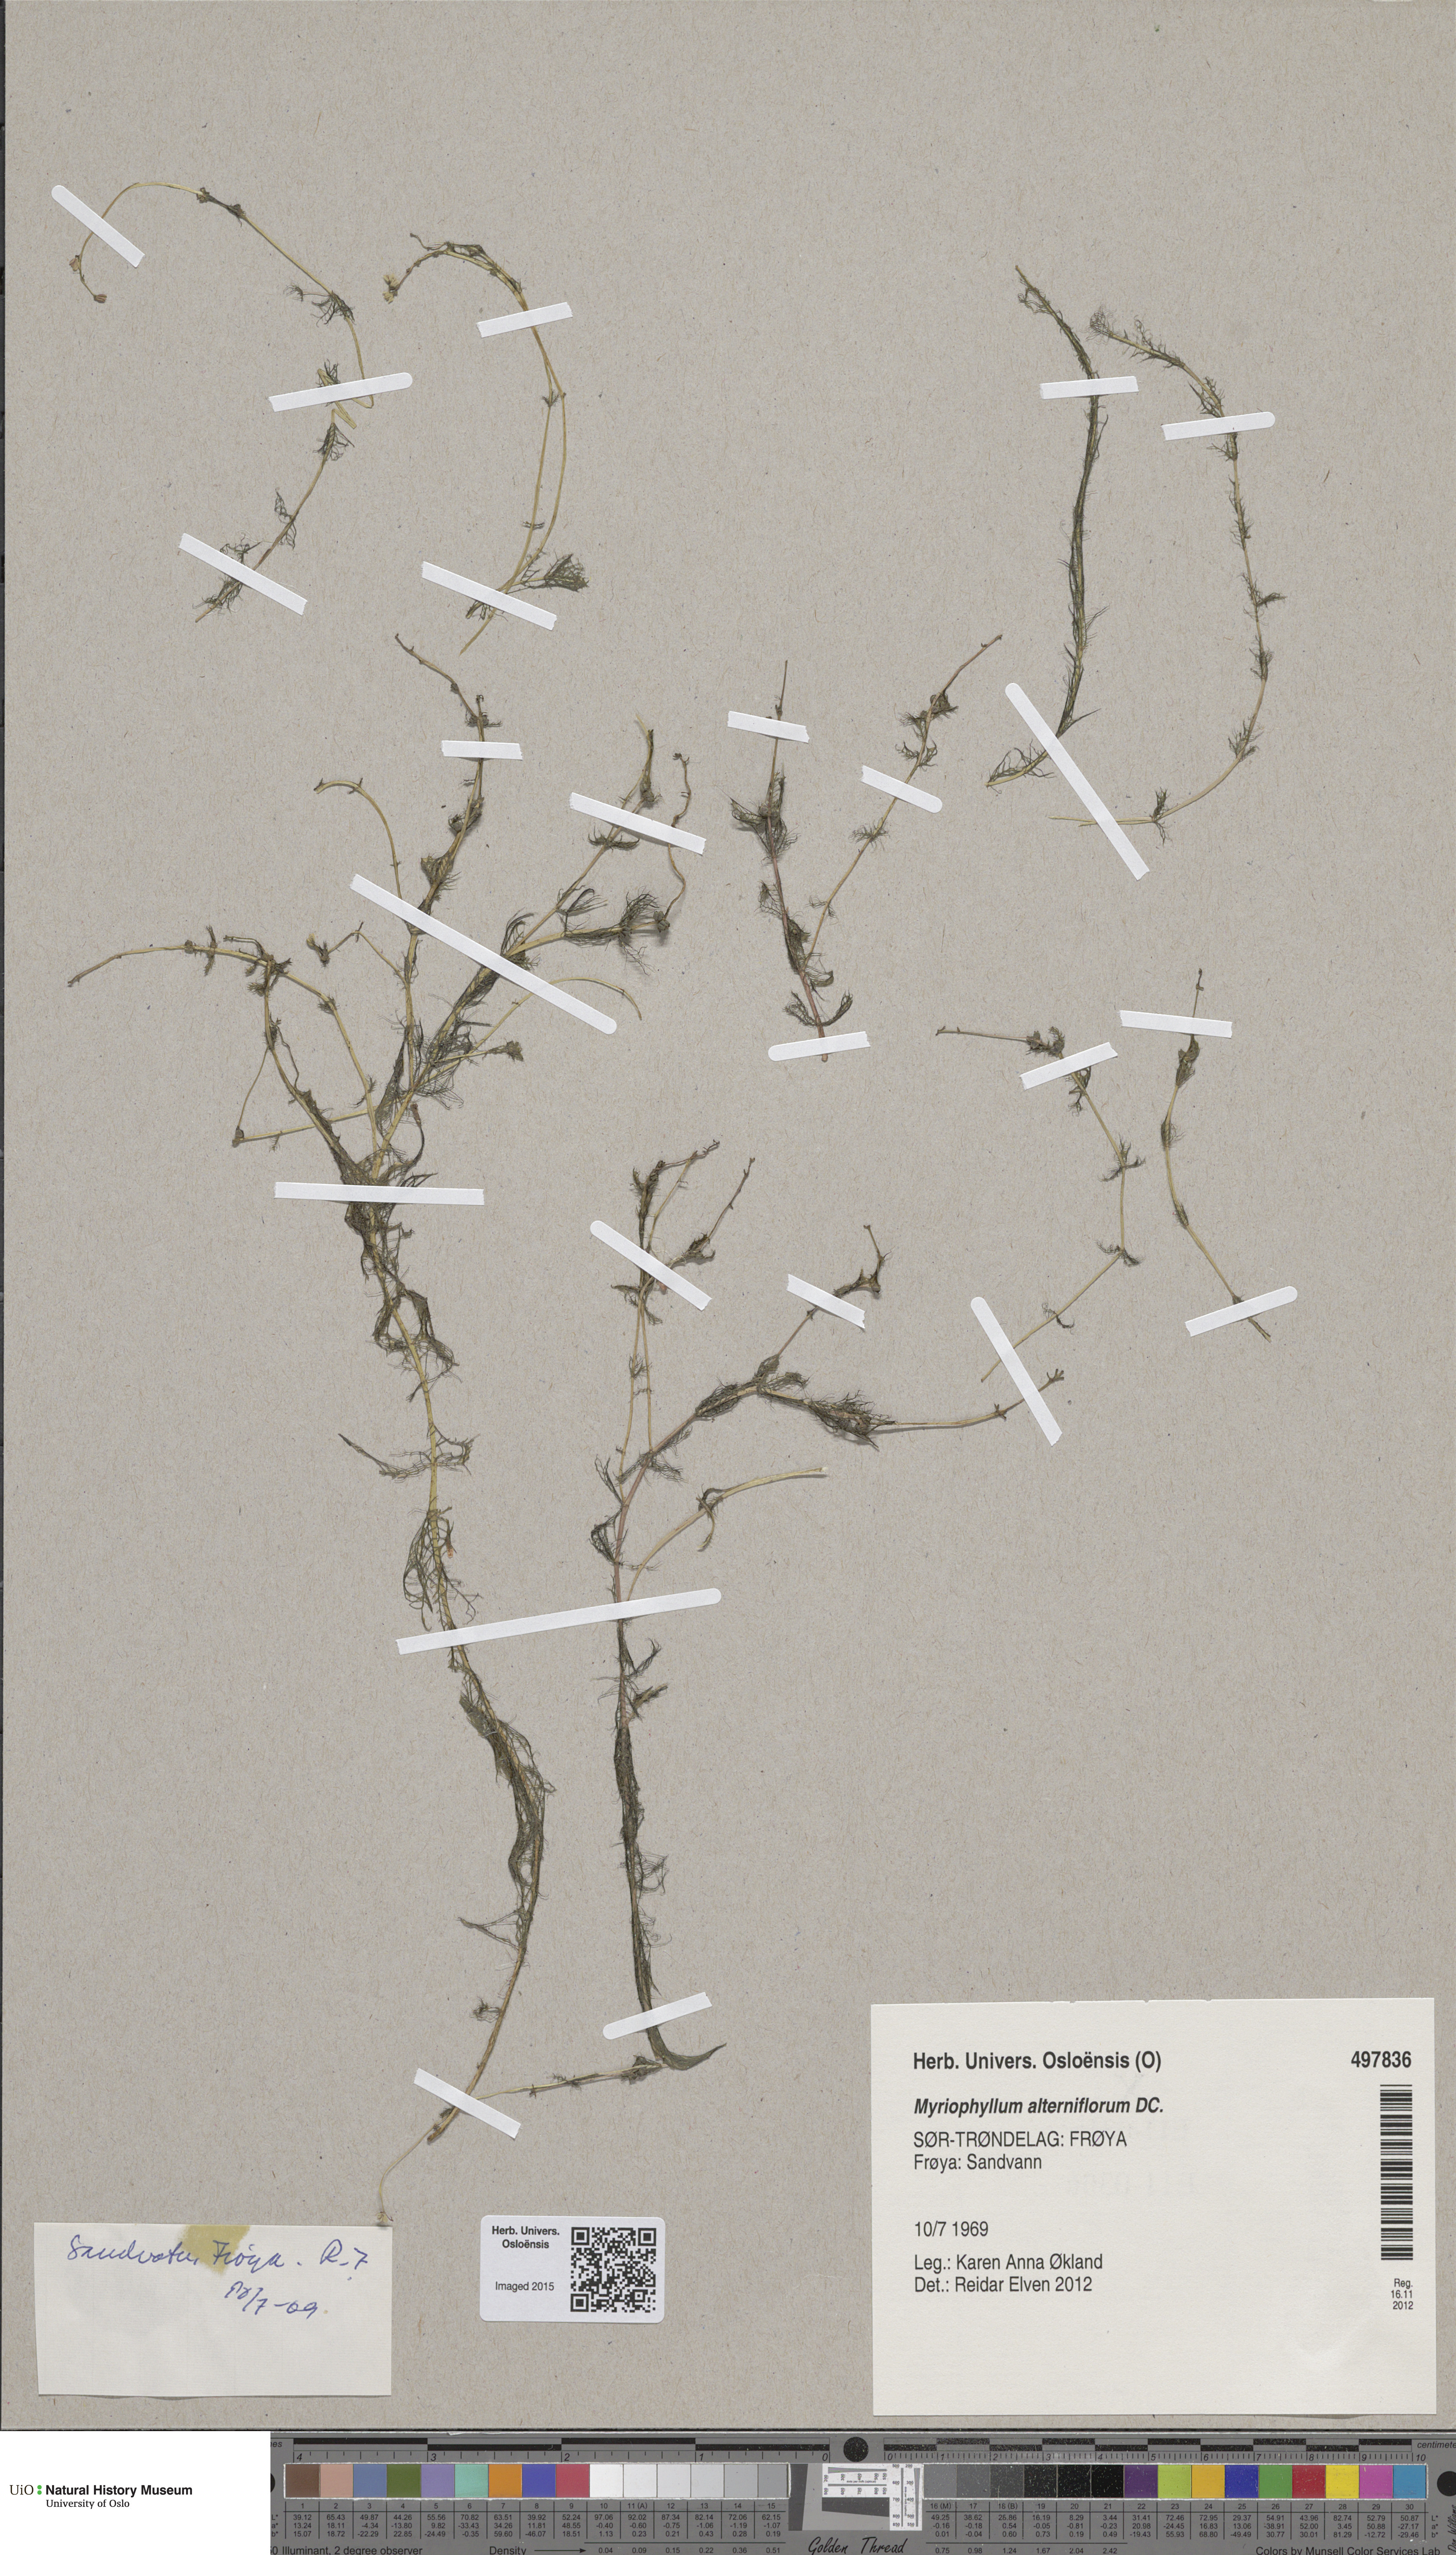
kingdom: Plantae
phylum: Tracheophyta
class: Magnoliopsida
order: Saxifragales
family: Haloragaceae
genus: Myriophyllum
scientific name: Myriophyllum alterniflorum
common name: Alternate water-milfoil
